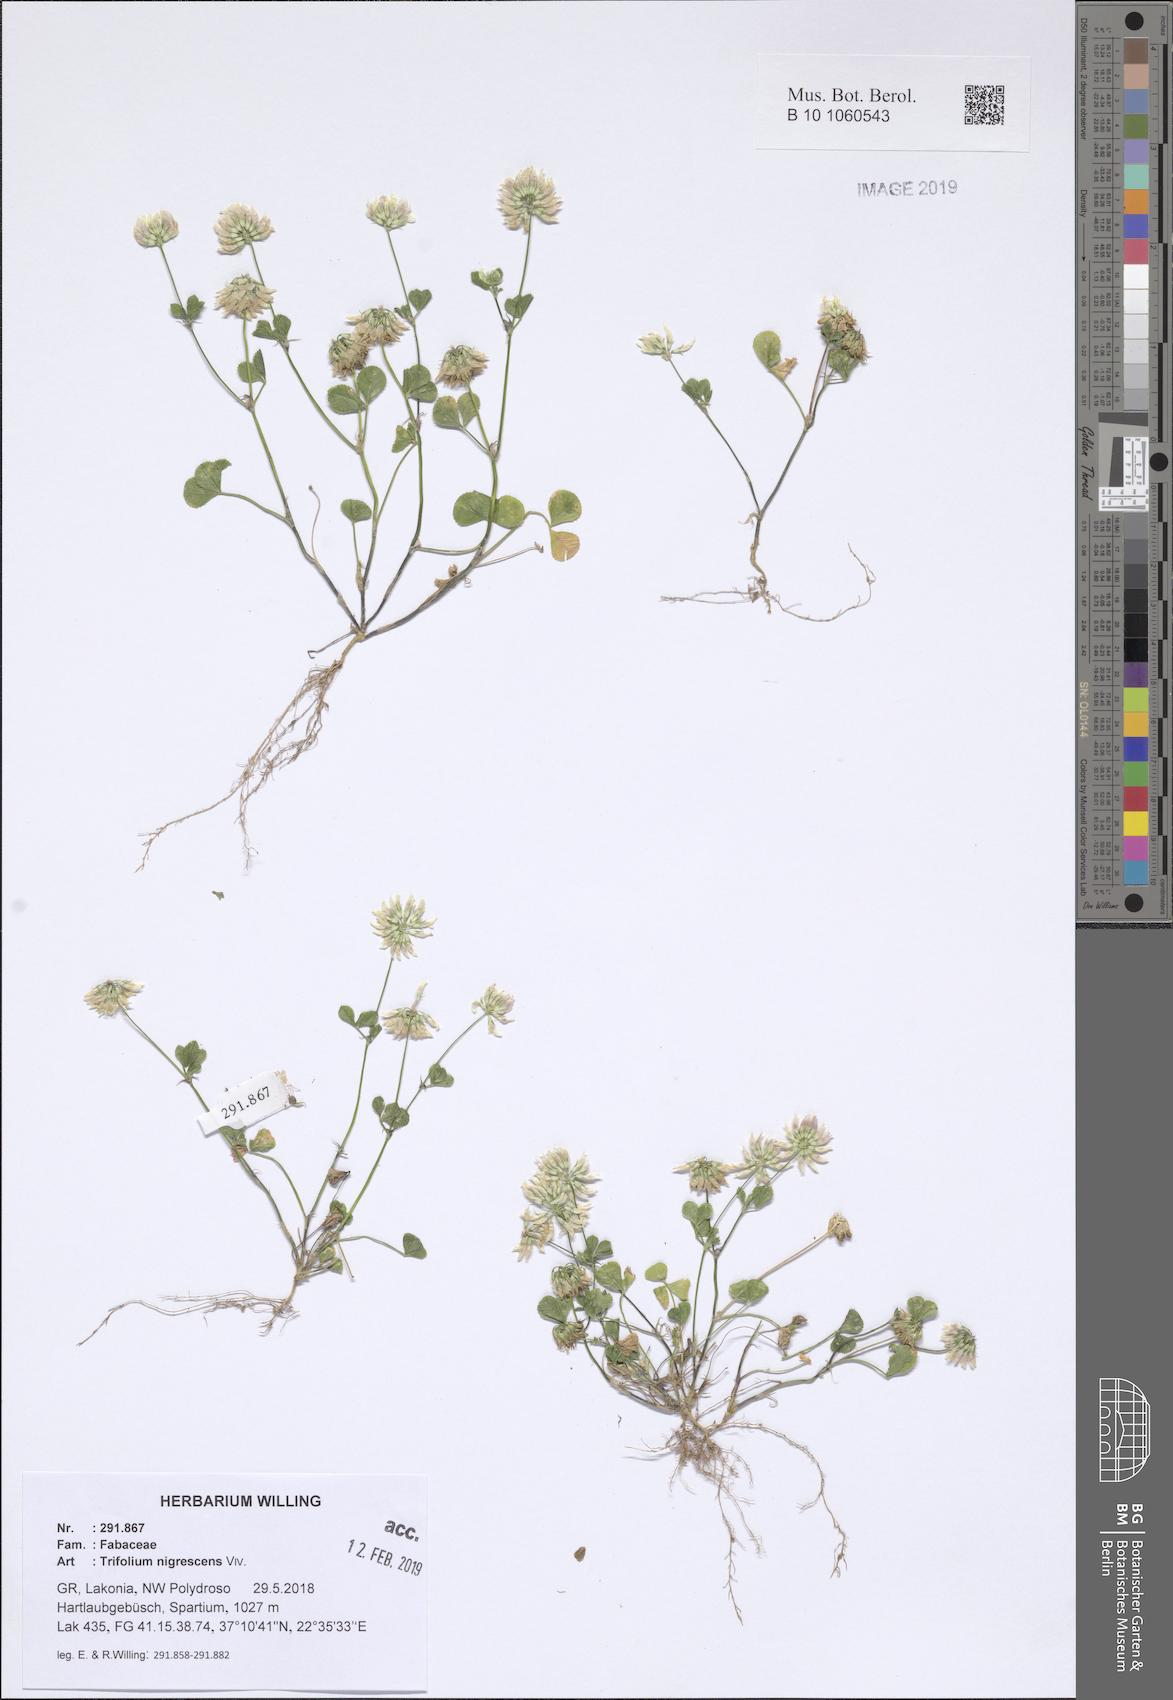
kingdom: Plantae
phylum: Tracheophyta
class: Magnoliopsida
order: Fabales
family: Fabaceae
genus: Trifolium
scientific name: Trifolium nigrescens
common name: Small white clover
